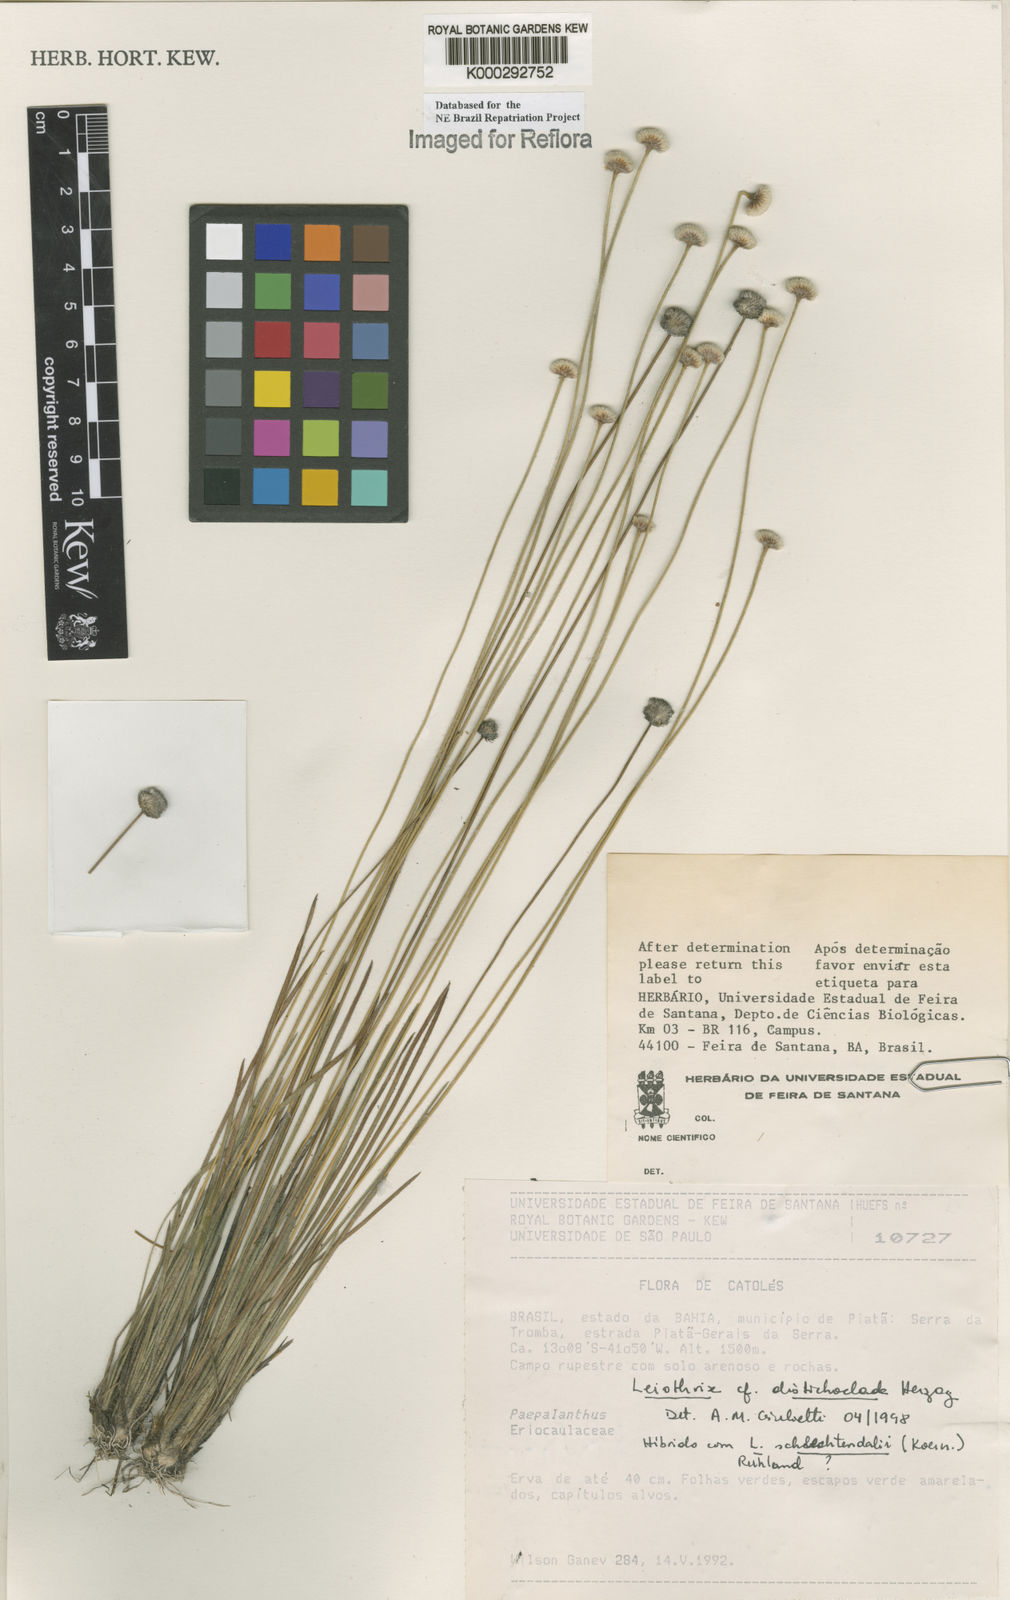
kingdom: Plantae
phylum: Tracheophyta
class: Liliopsida
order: Poales
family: Eriocaulaceae
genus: Leiothrix
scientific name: Leiothrix distichoclada
